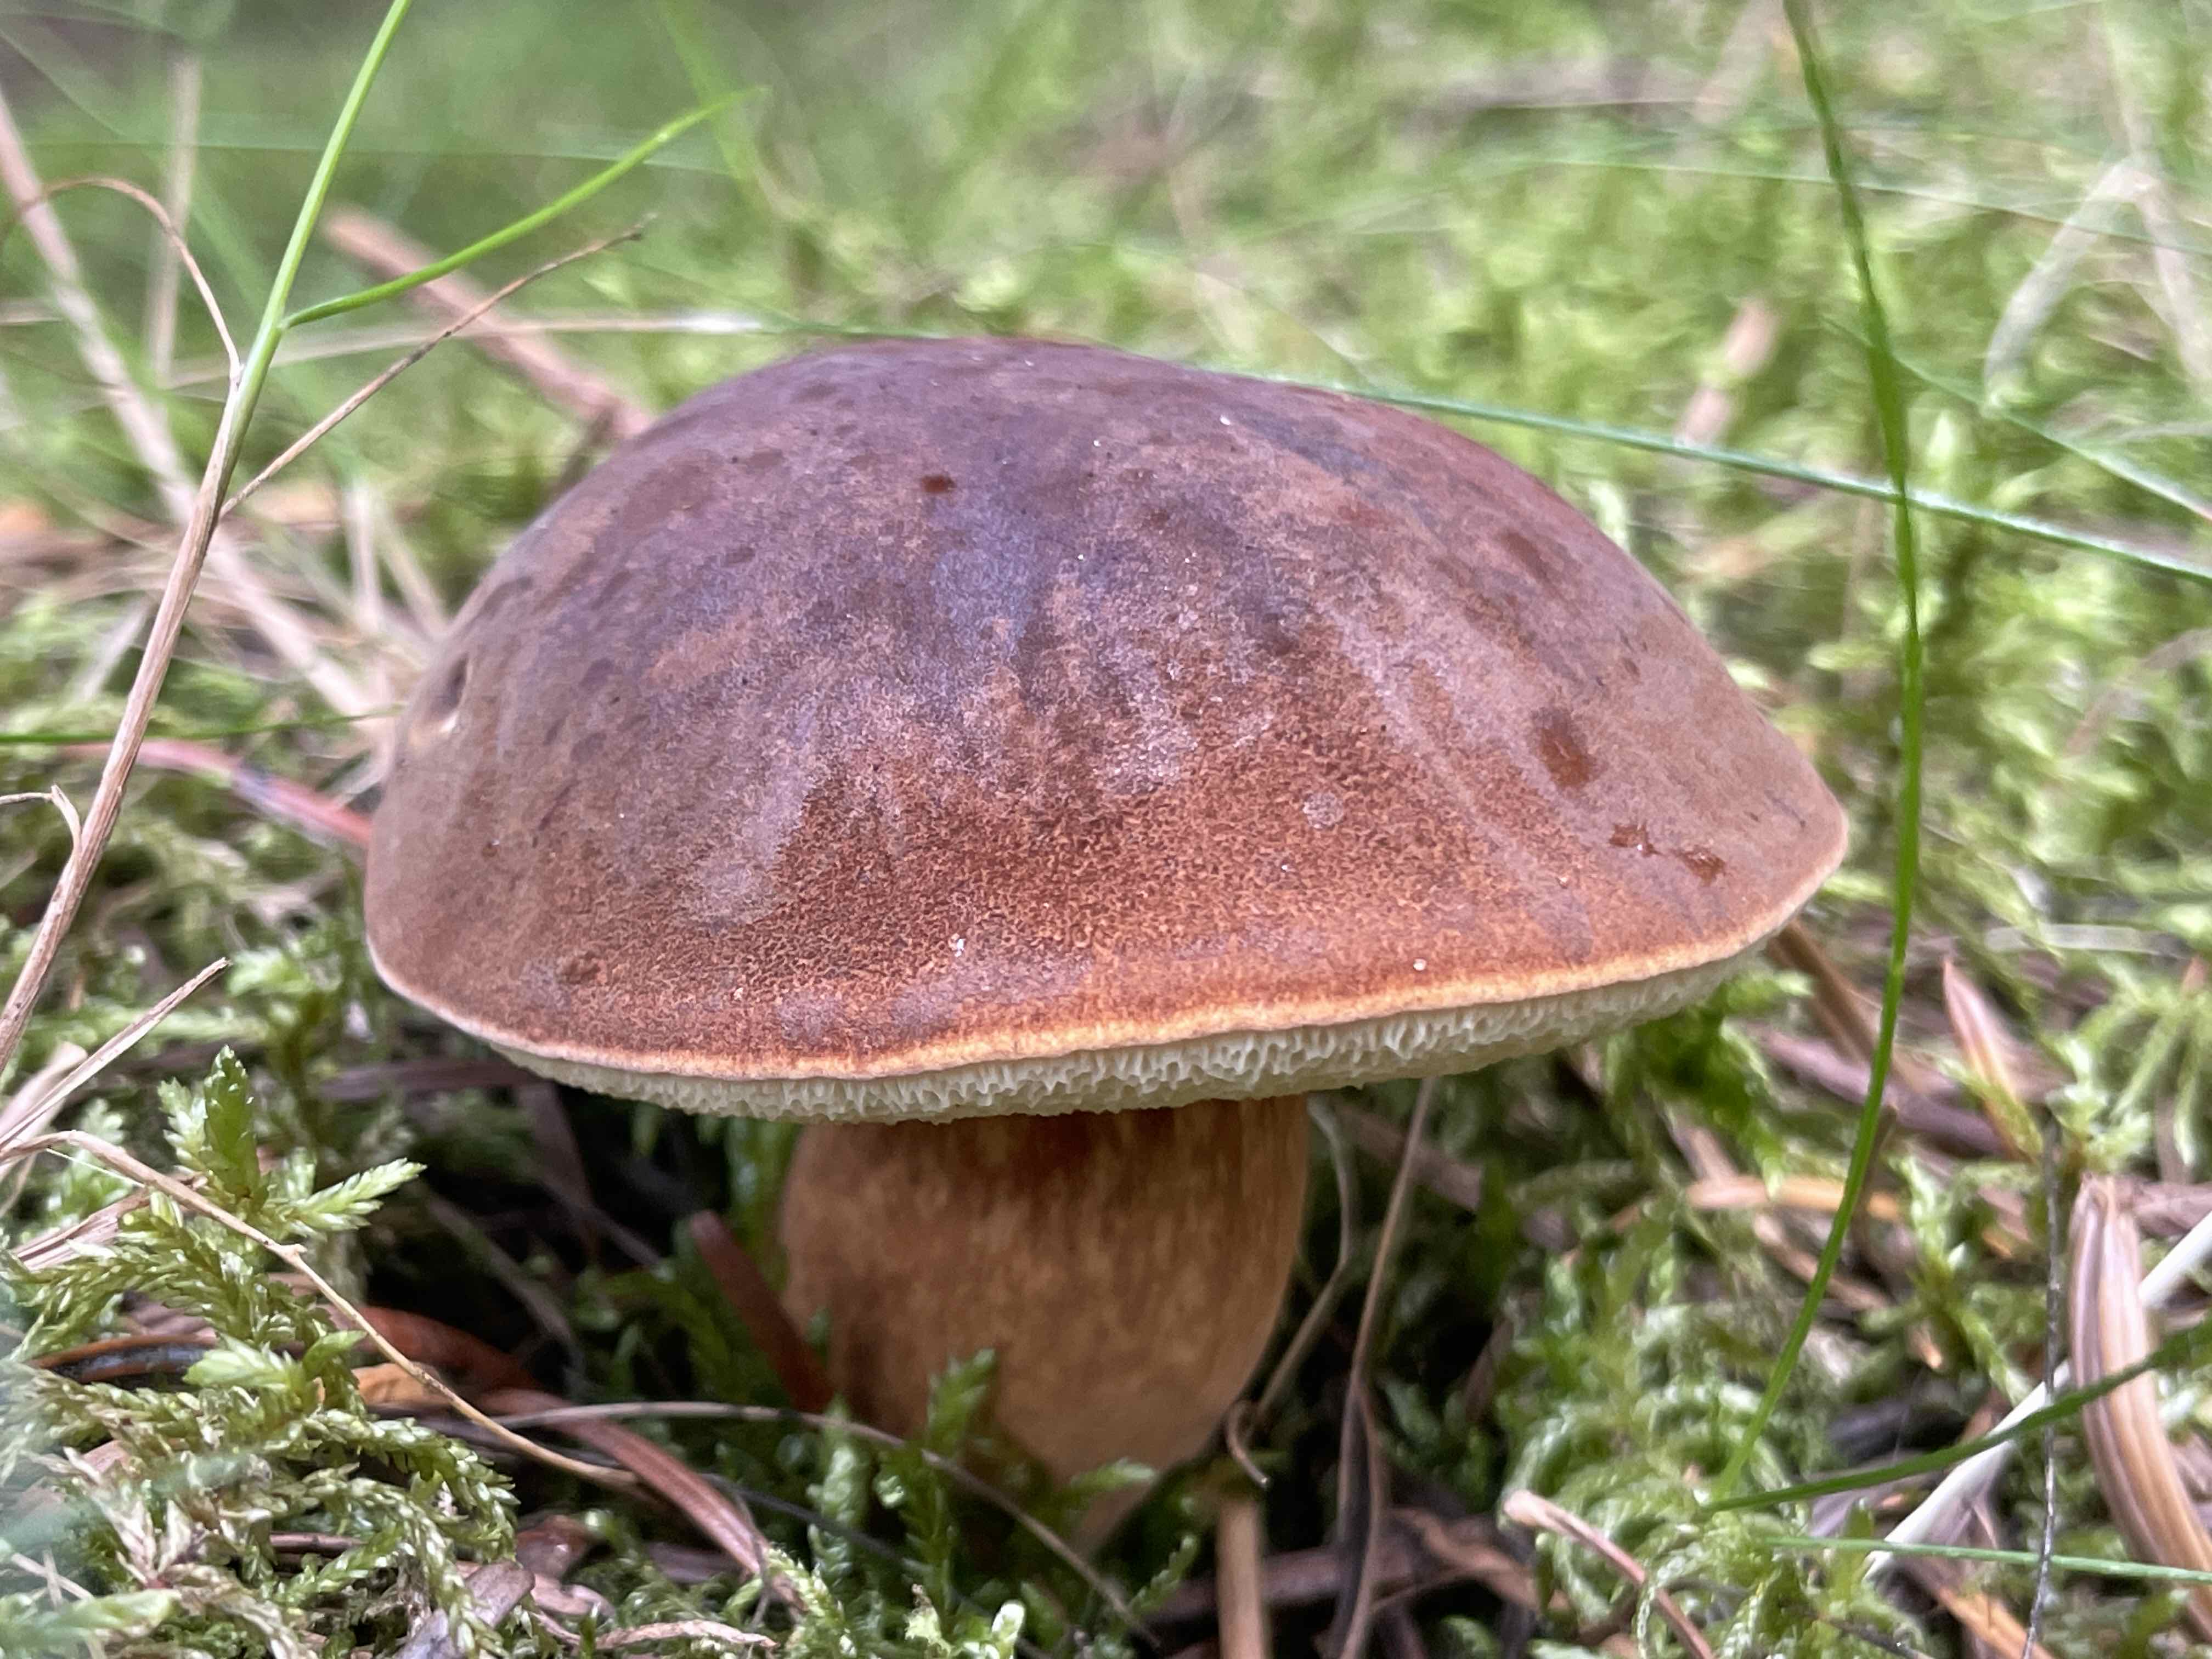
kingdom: Fungi
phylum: Basidiomycota
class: Agaricomycetes
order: Boletales
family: Boletaceae
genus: Imleria
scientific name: Imleria badia
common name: brunstokket rørhat
